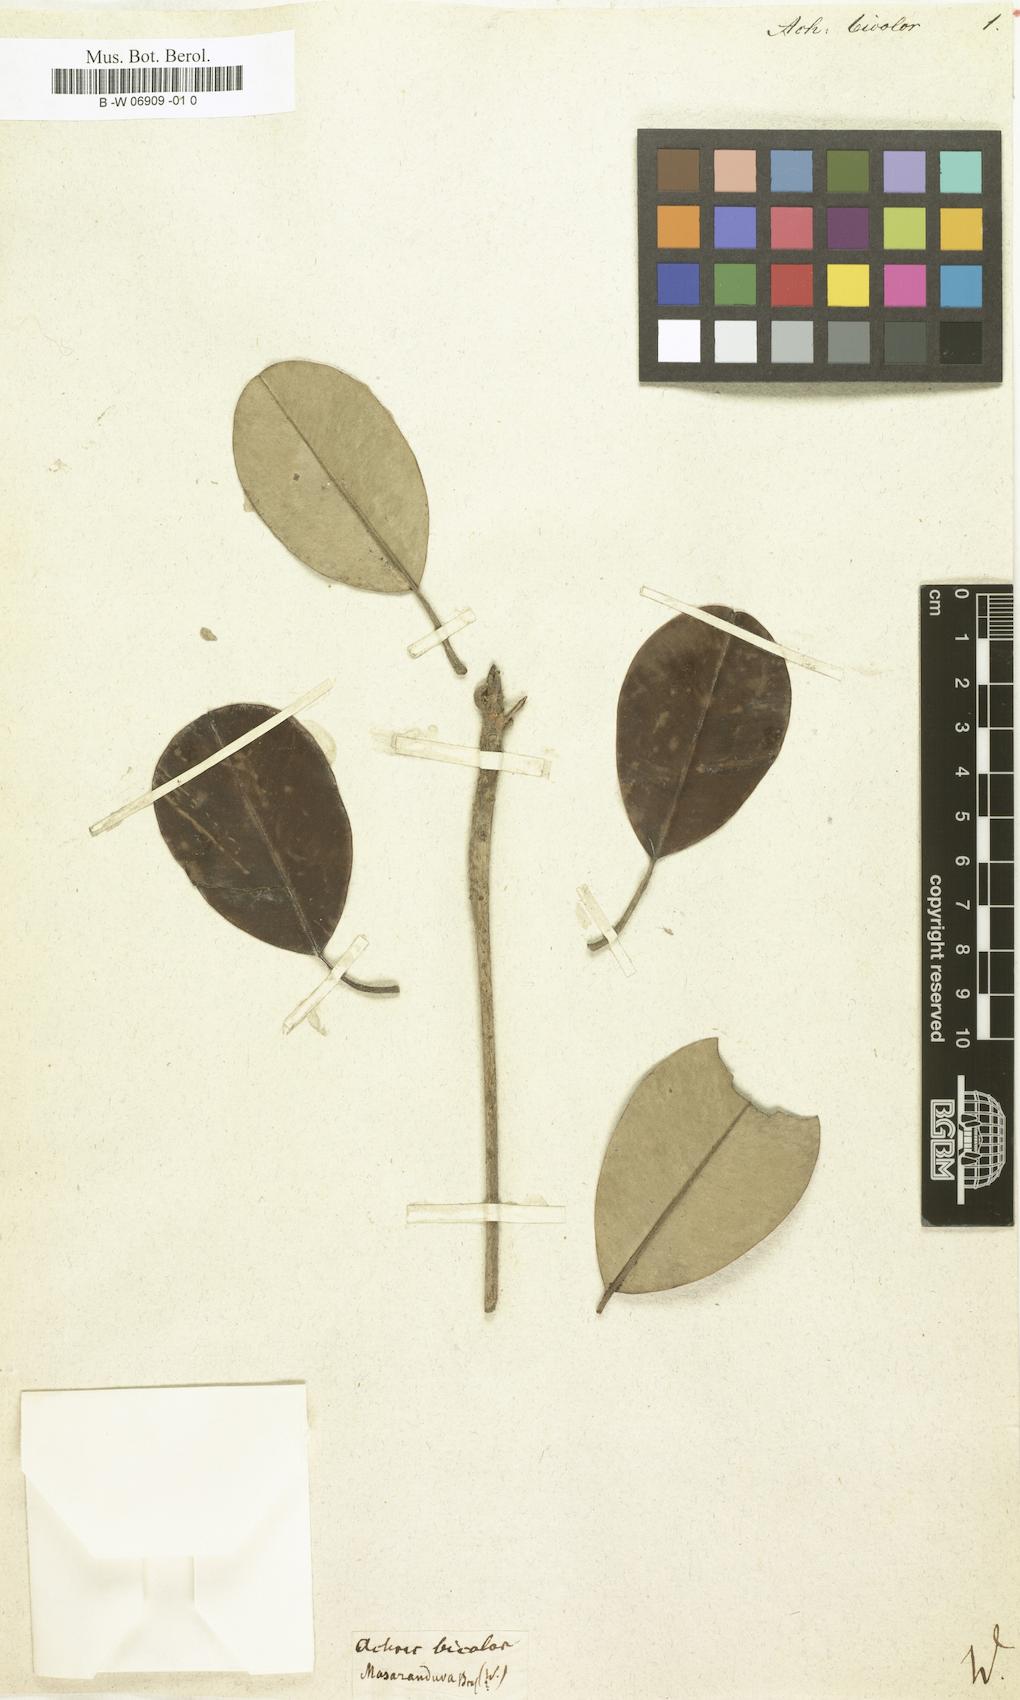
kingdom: Plantae
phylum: Tracheophyta
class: Magnoliopsida
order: Ericales
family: Sapotaceae
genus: Achras
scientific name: Achras
